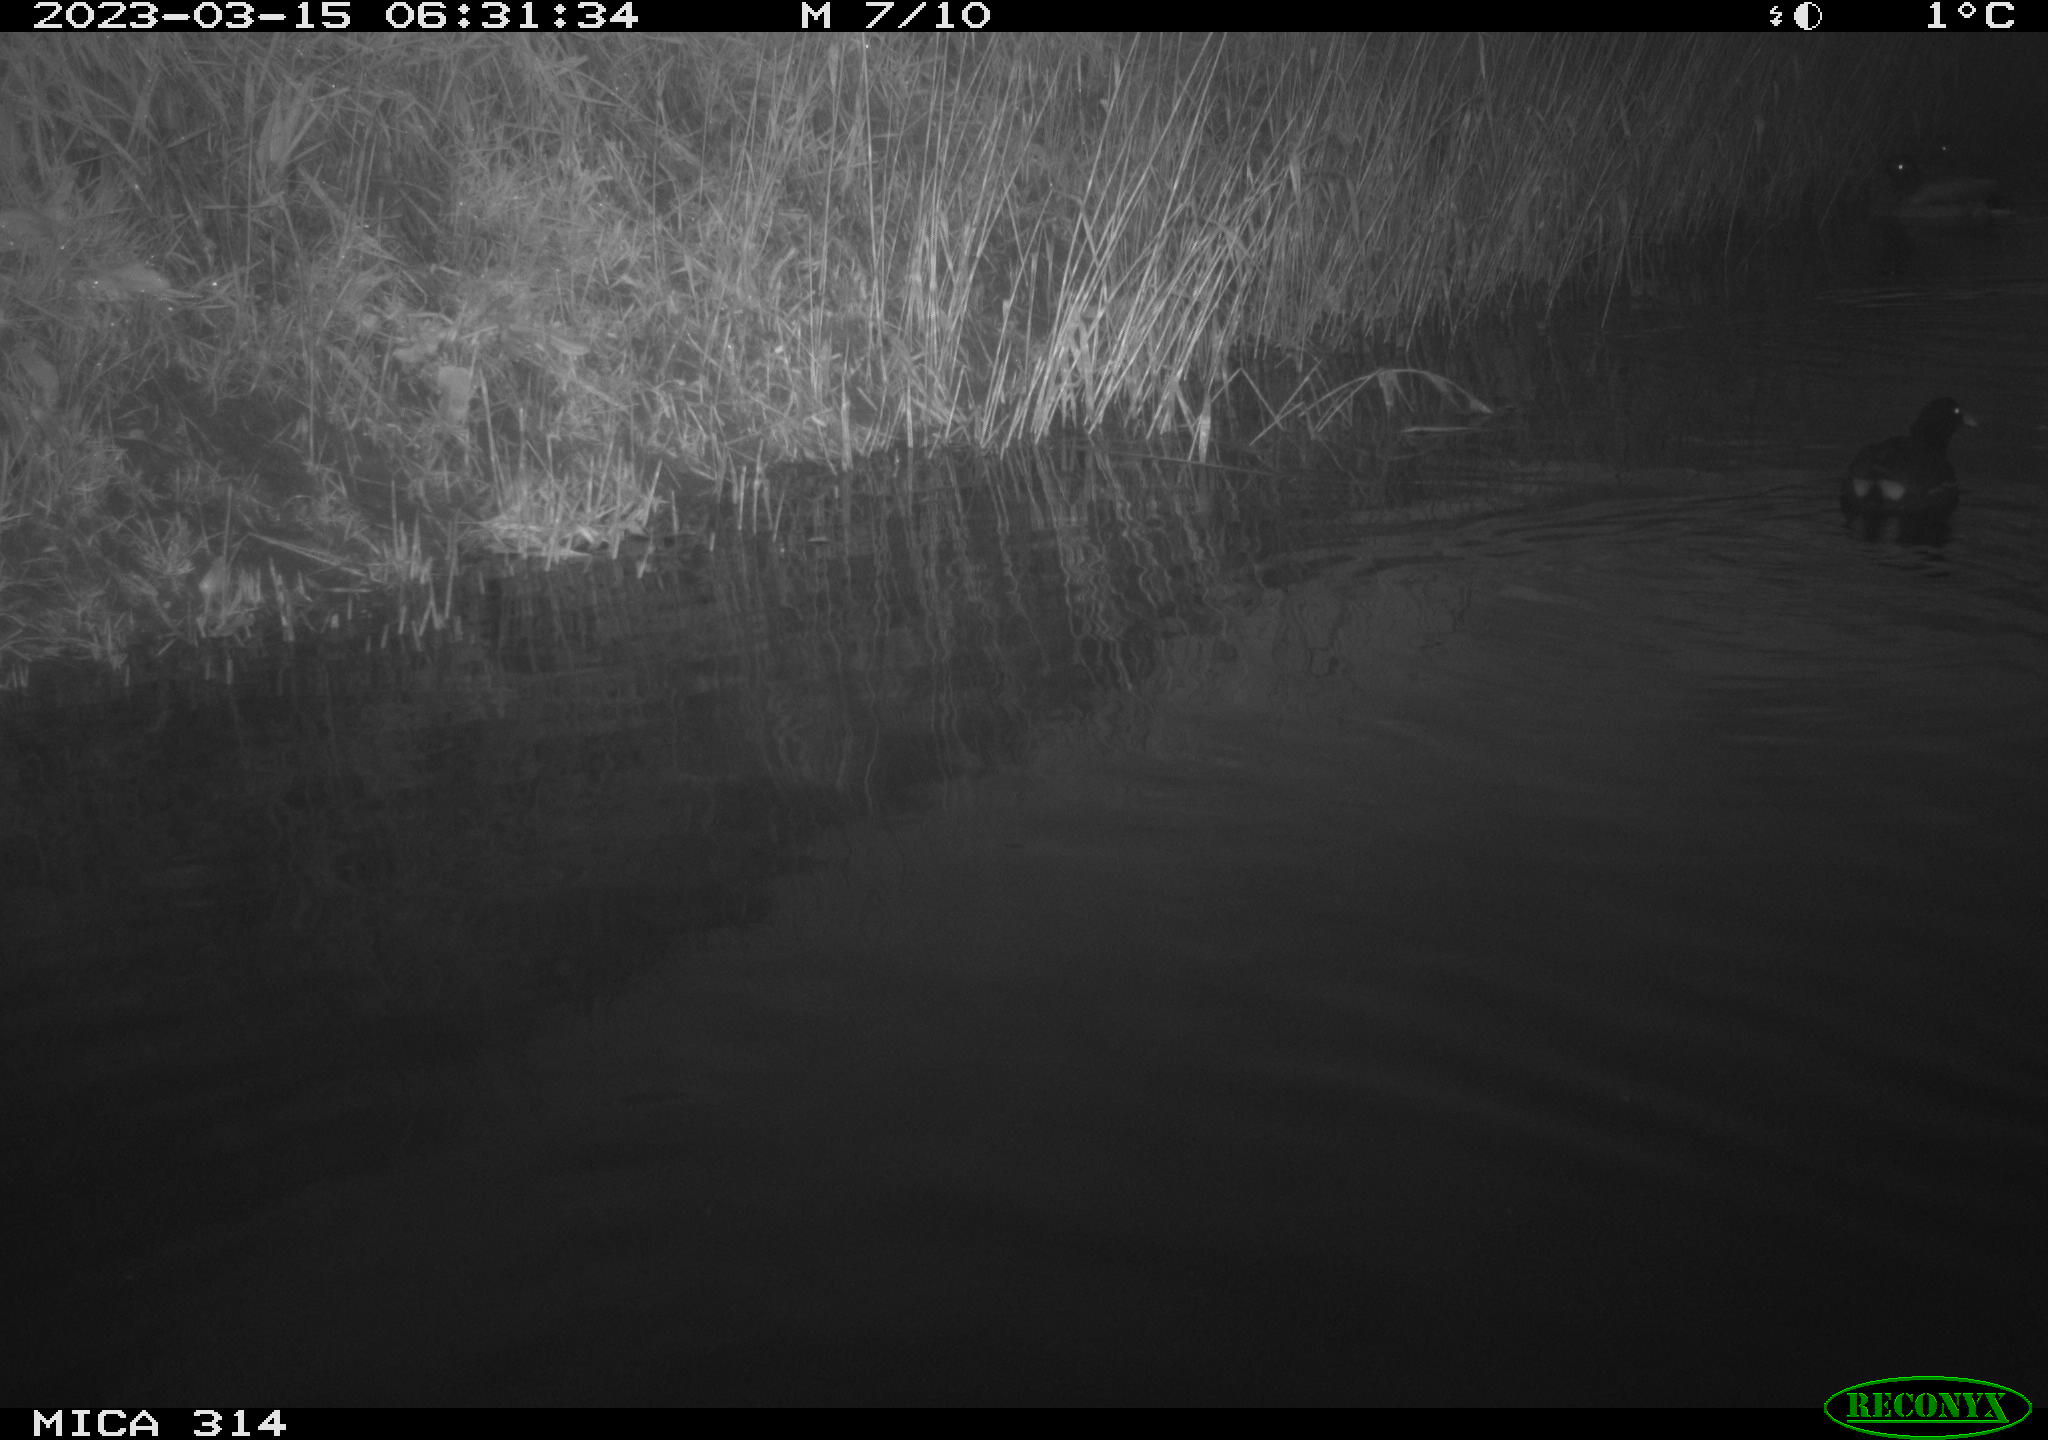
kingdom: Animalia
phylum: Chordata
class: Aves
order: Anseriformes
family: Anatidae
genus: Anas
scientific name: Anas
